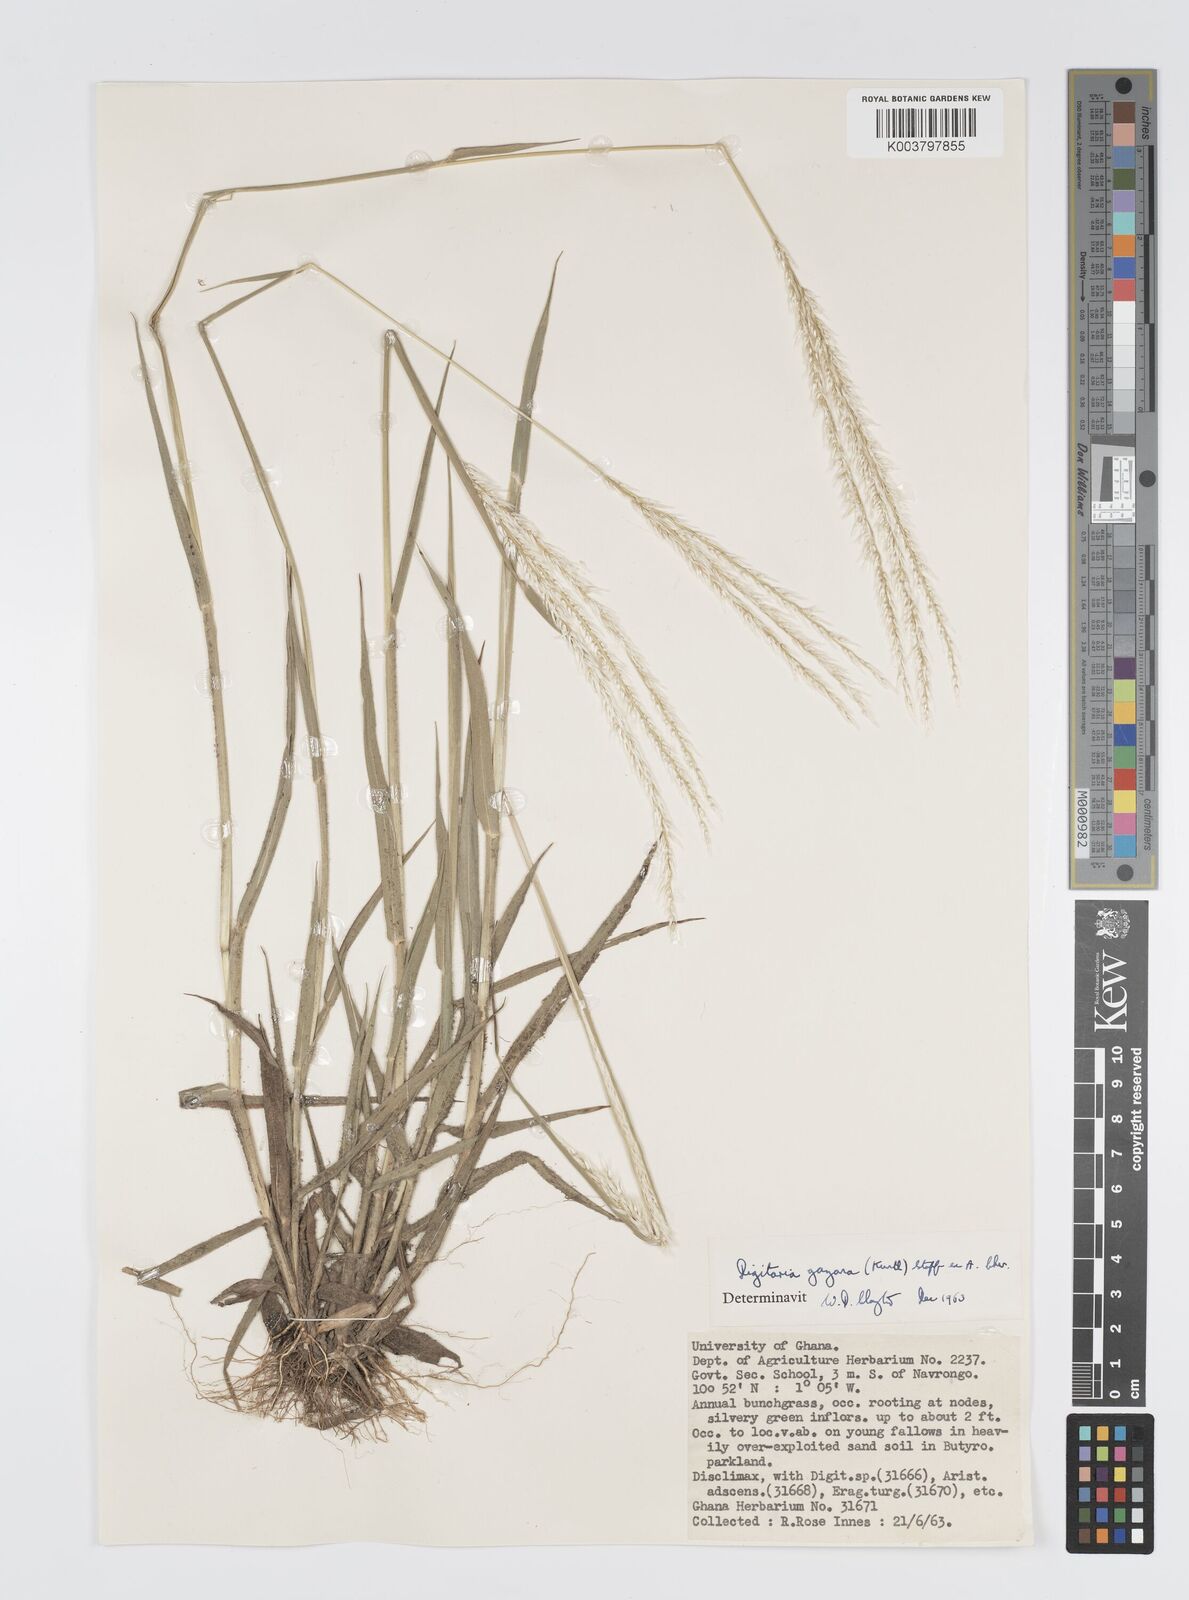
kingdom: Plantae
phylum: Tracheophyta
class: Liliopsida
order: Poales
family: Poaceae
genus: Digitaria
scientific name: Digitaria gayana
